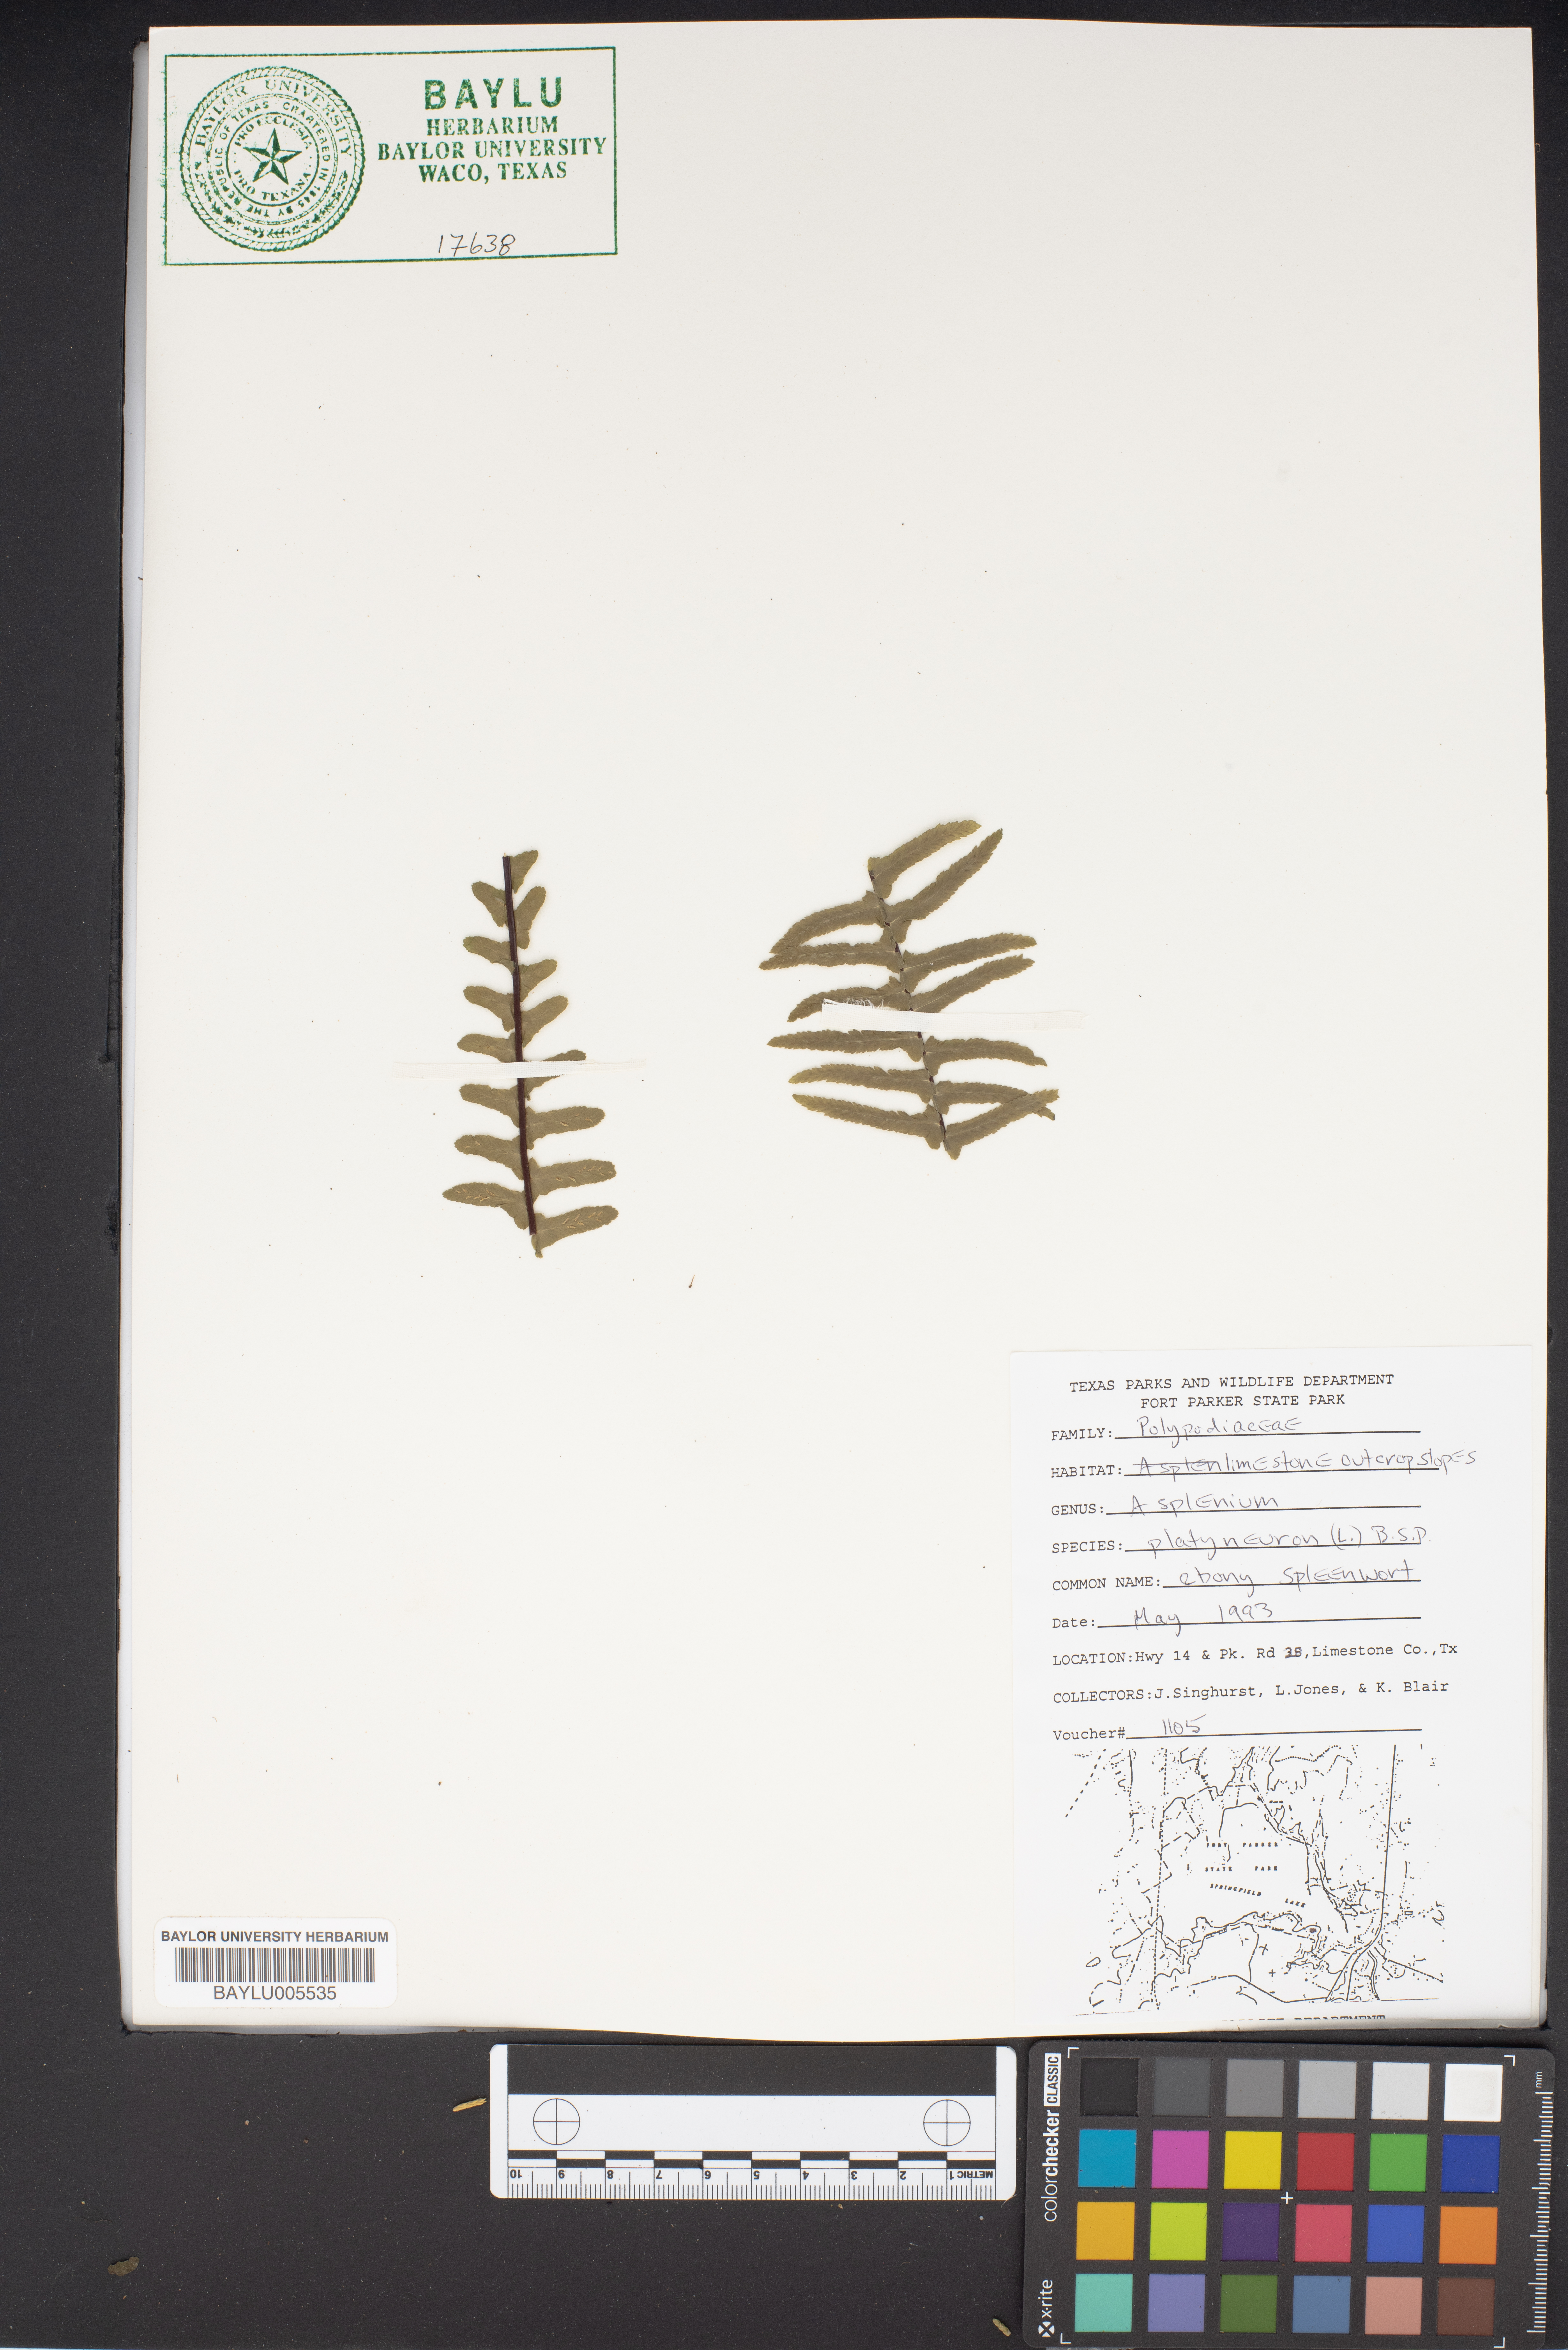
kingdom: Plantae
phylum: Tracheophyta
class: Polypodiopsida
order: Polypodiales
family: Aspleniaceae
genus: Asplenium
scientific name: Asplenium platyneuron
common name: Ebony spleenwort
